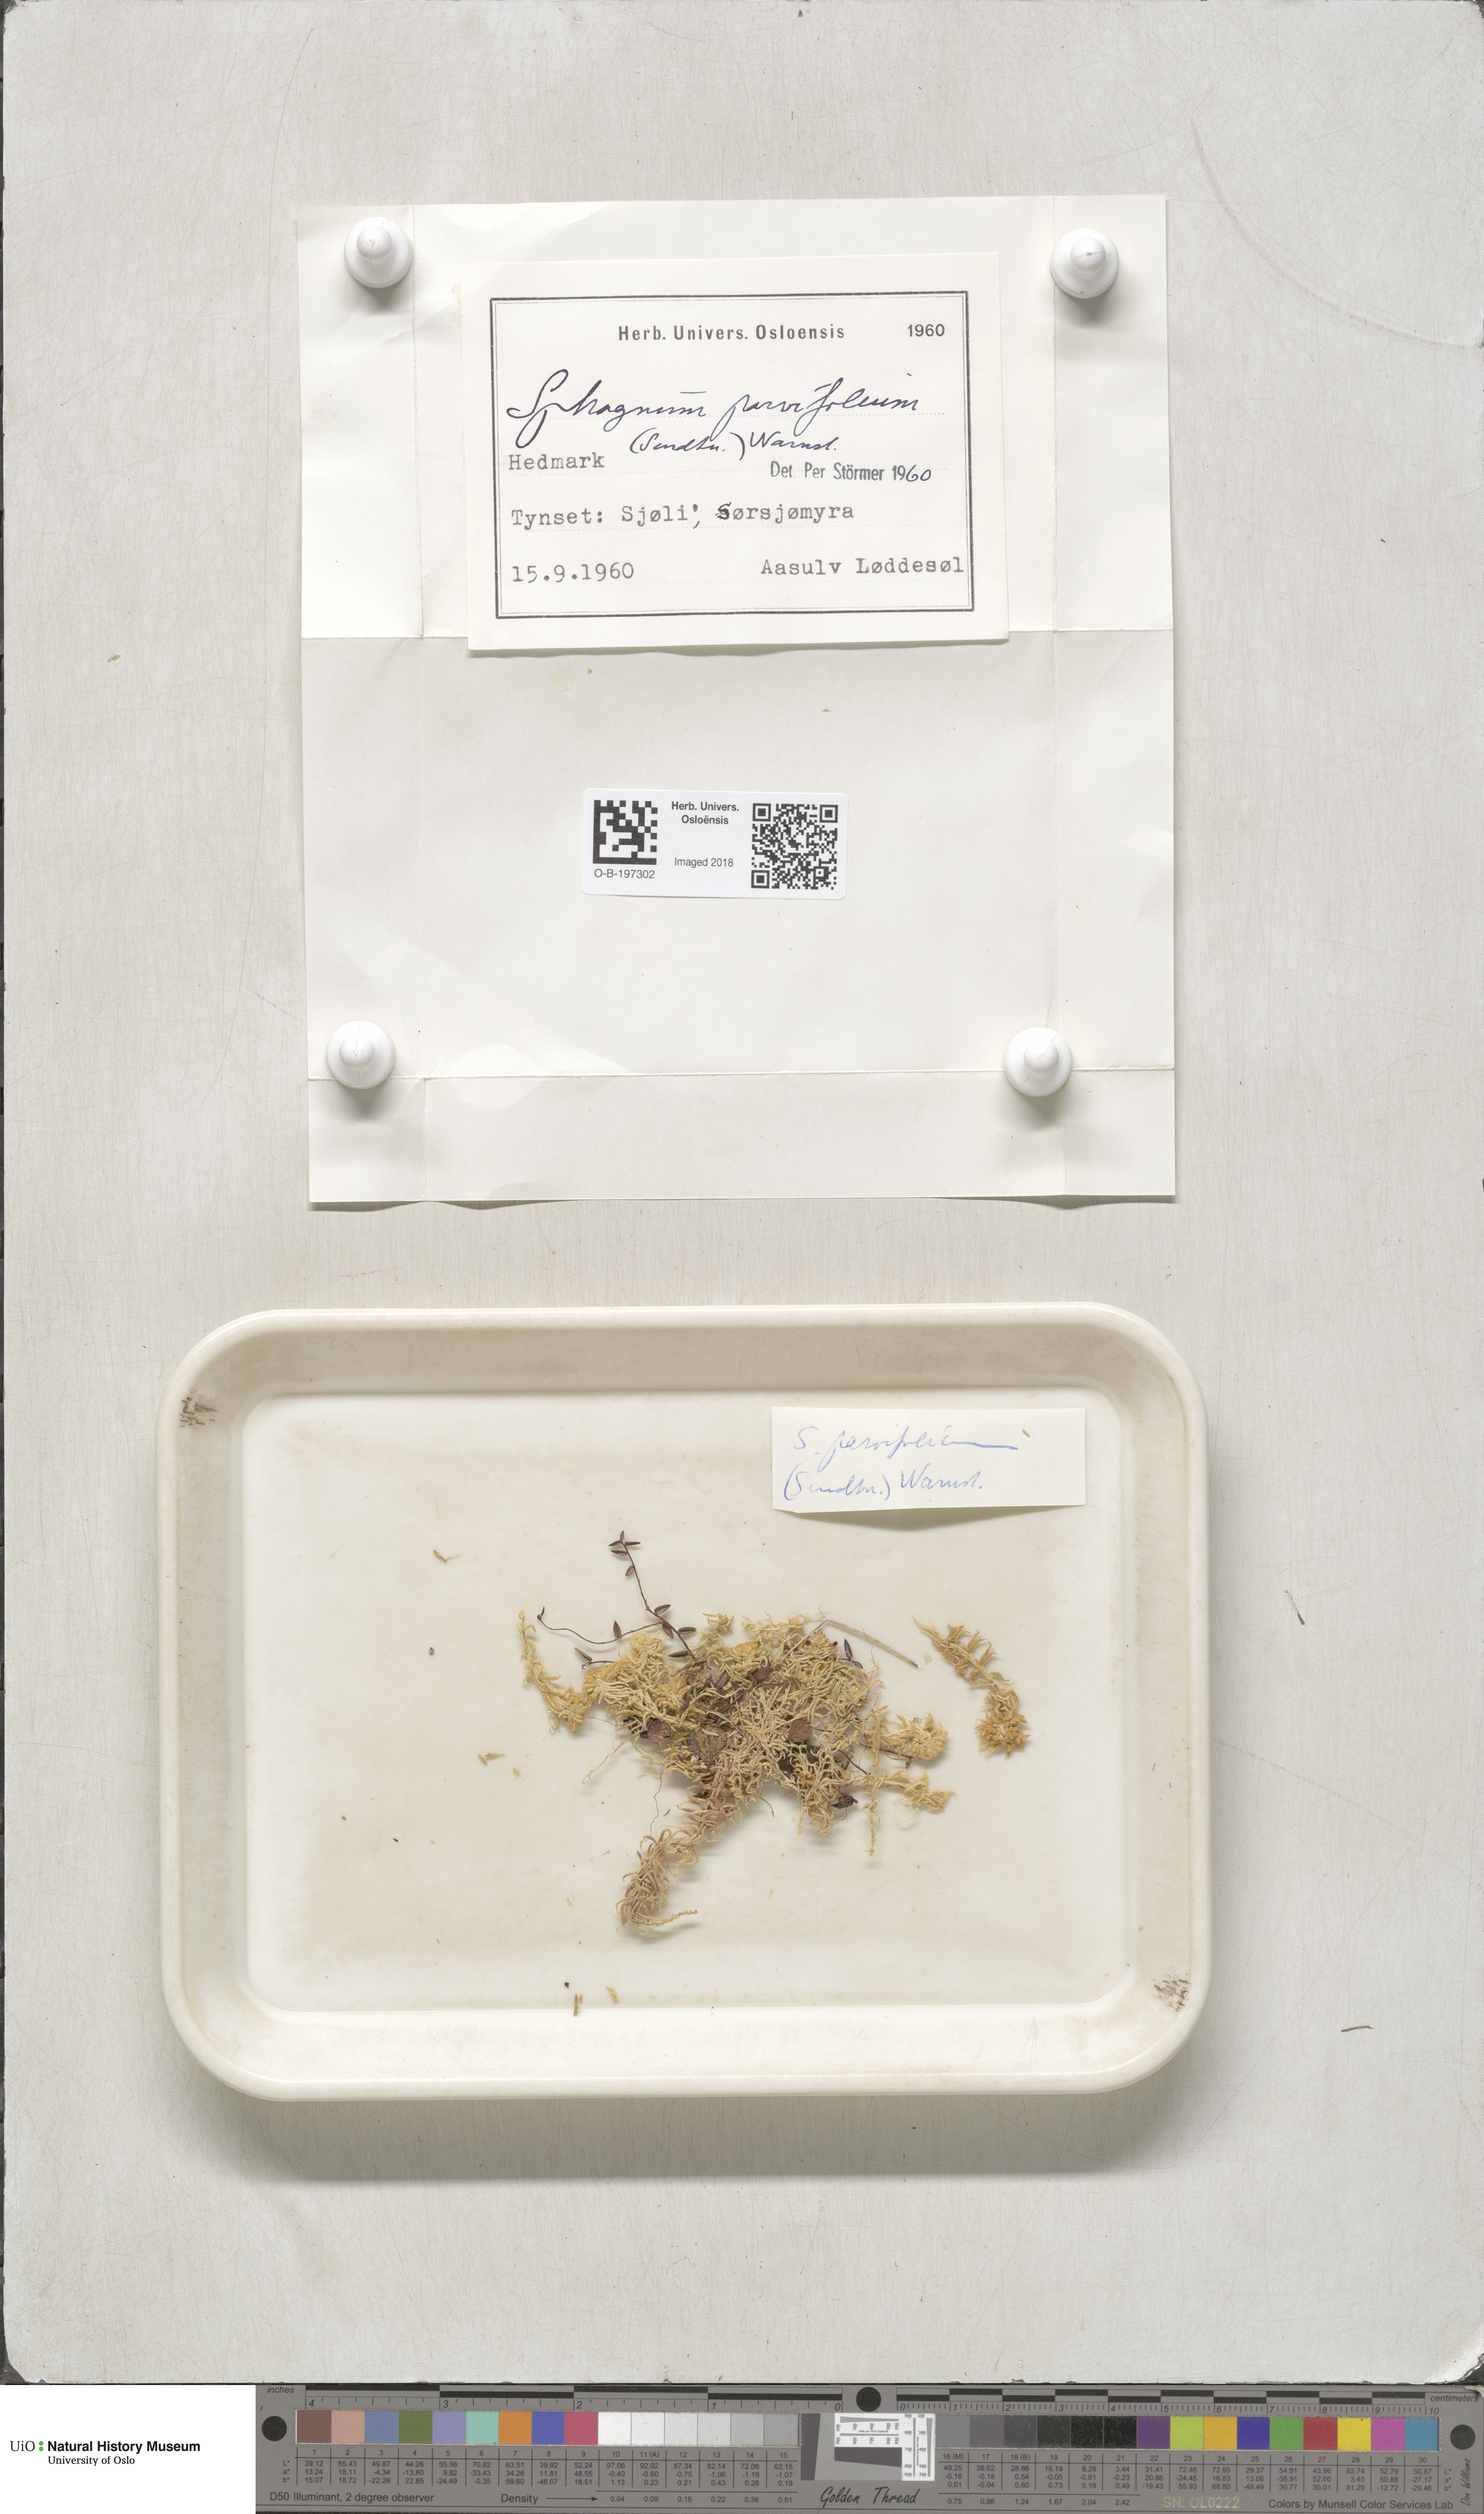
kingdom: Plantae
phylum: Bryophyta
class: Sphagnopsida
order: Sphagnales
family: Sphagnaceae
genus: Sphagnum
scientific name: Sphagnum angustifolium
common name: Narrow-leaved peat moss
